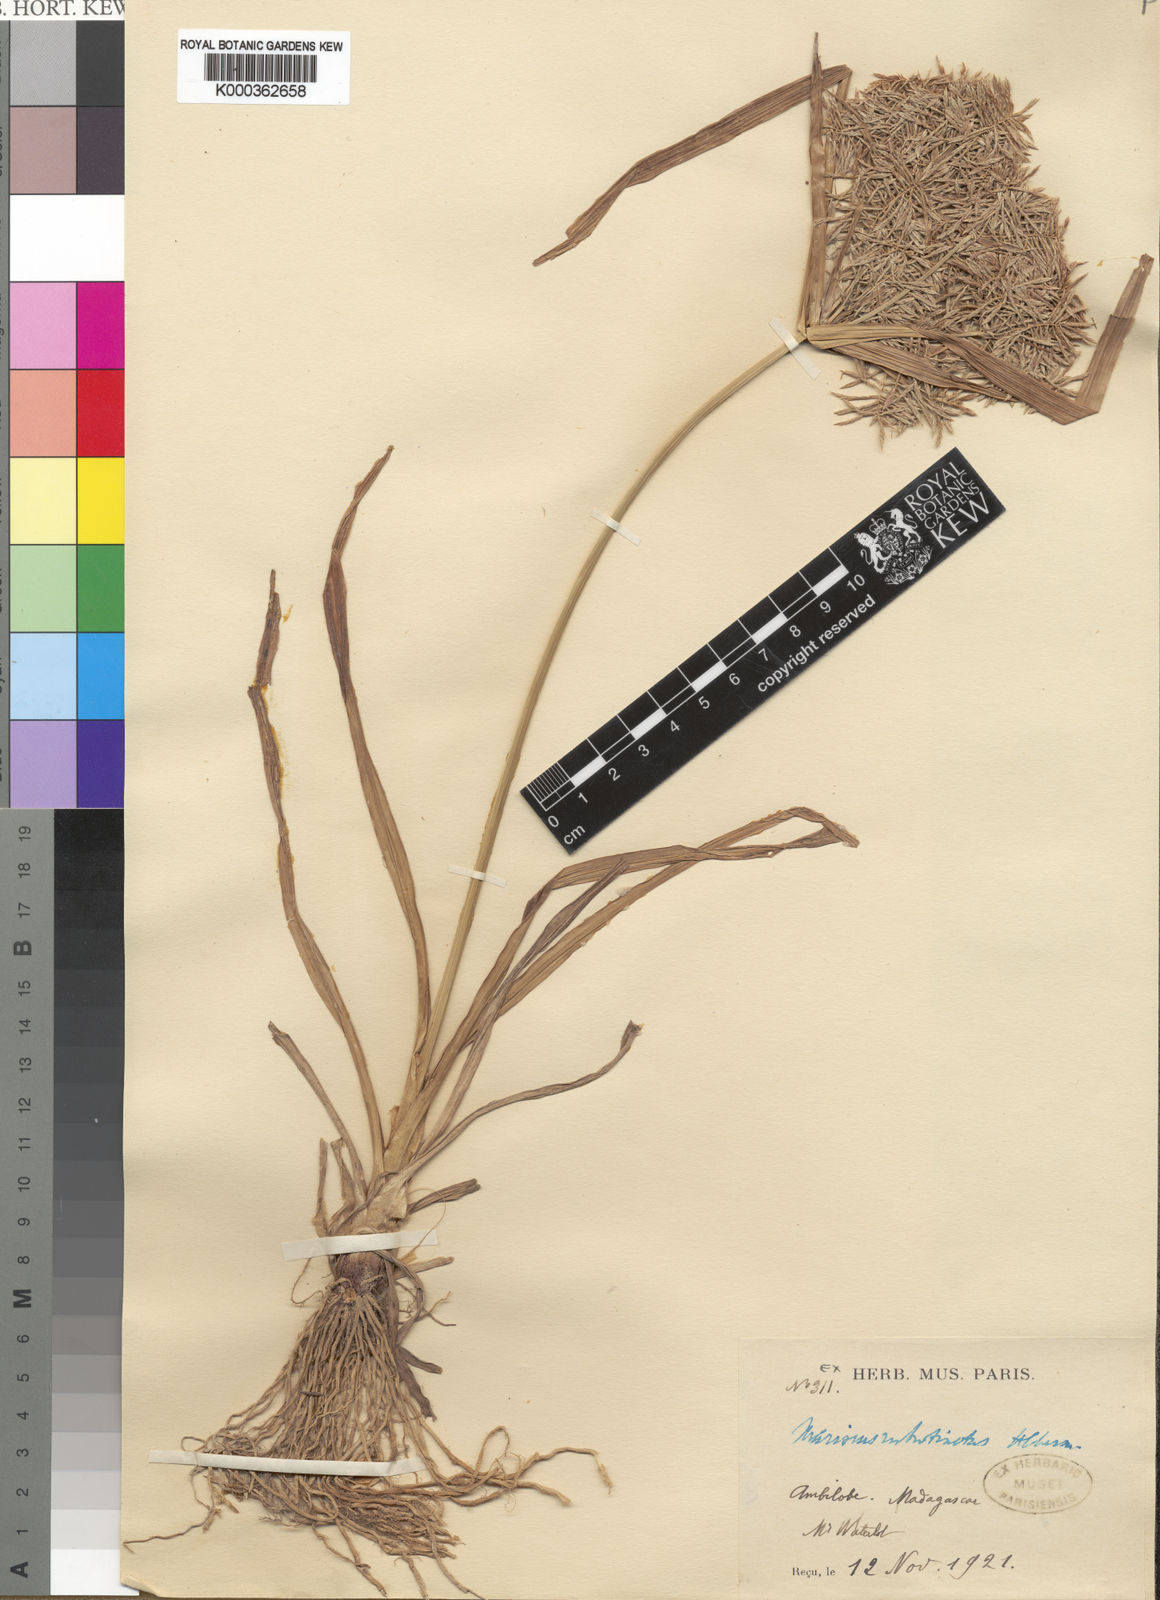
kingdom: Plantae
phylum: Tracheophyta
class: Liliopsida
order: Poales
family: Cyperaceae
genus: Cyperus
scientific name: Cyperus
